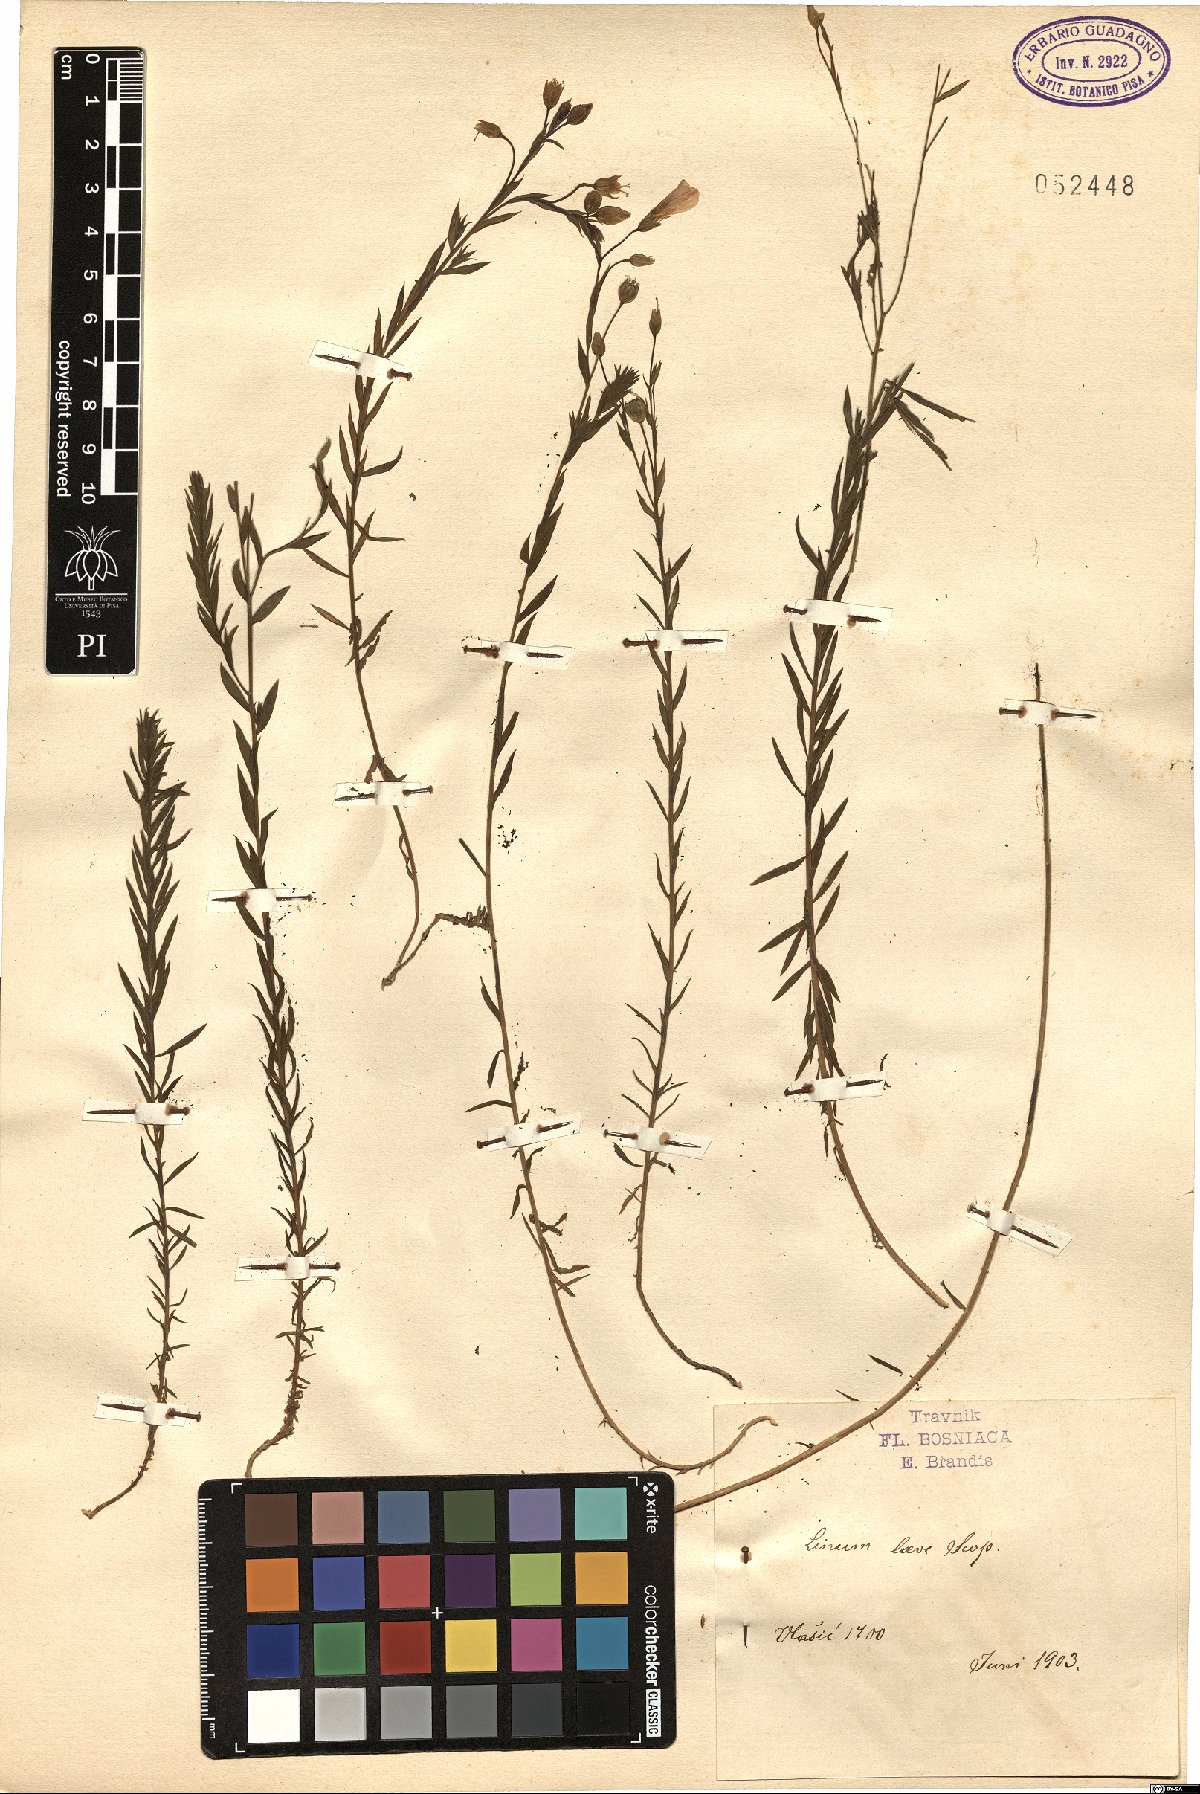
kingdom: Plantae
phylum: Tracheophyta
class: Magnoliopsida
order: Malpighiales
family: Linaceae
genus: Linum
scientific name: Linum alpinum
